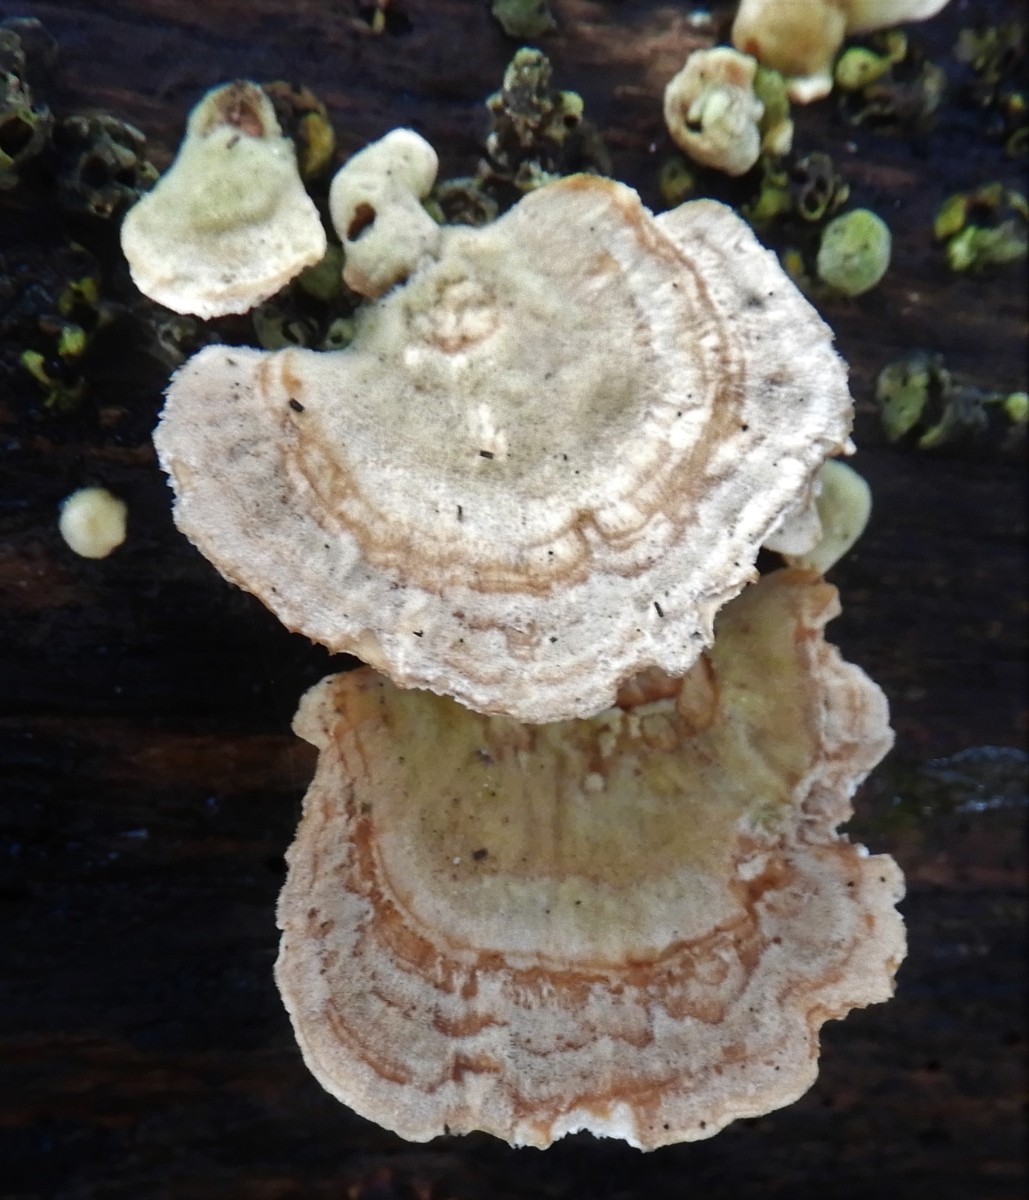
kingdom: Fungi
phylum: Basidiomycota
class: Agaricomycetes
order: Polyporales
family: Polyporaceae
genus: Trametes
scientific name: Trametes ochracea
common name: bæltet læderporesvamp
